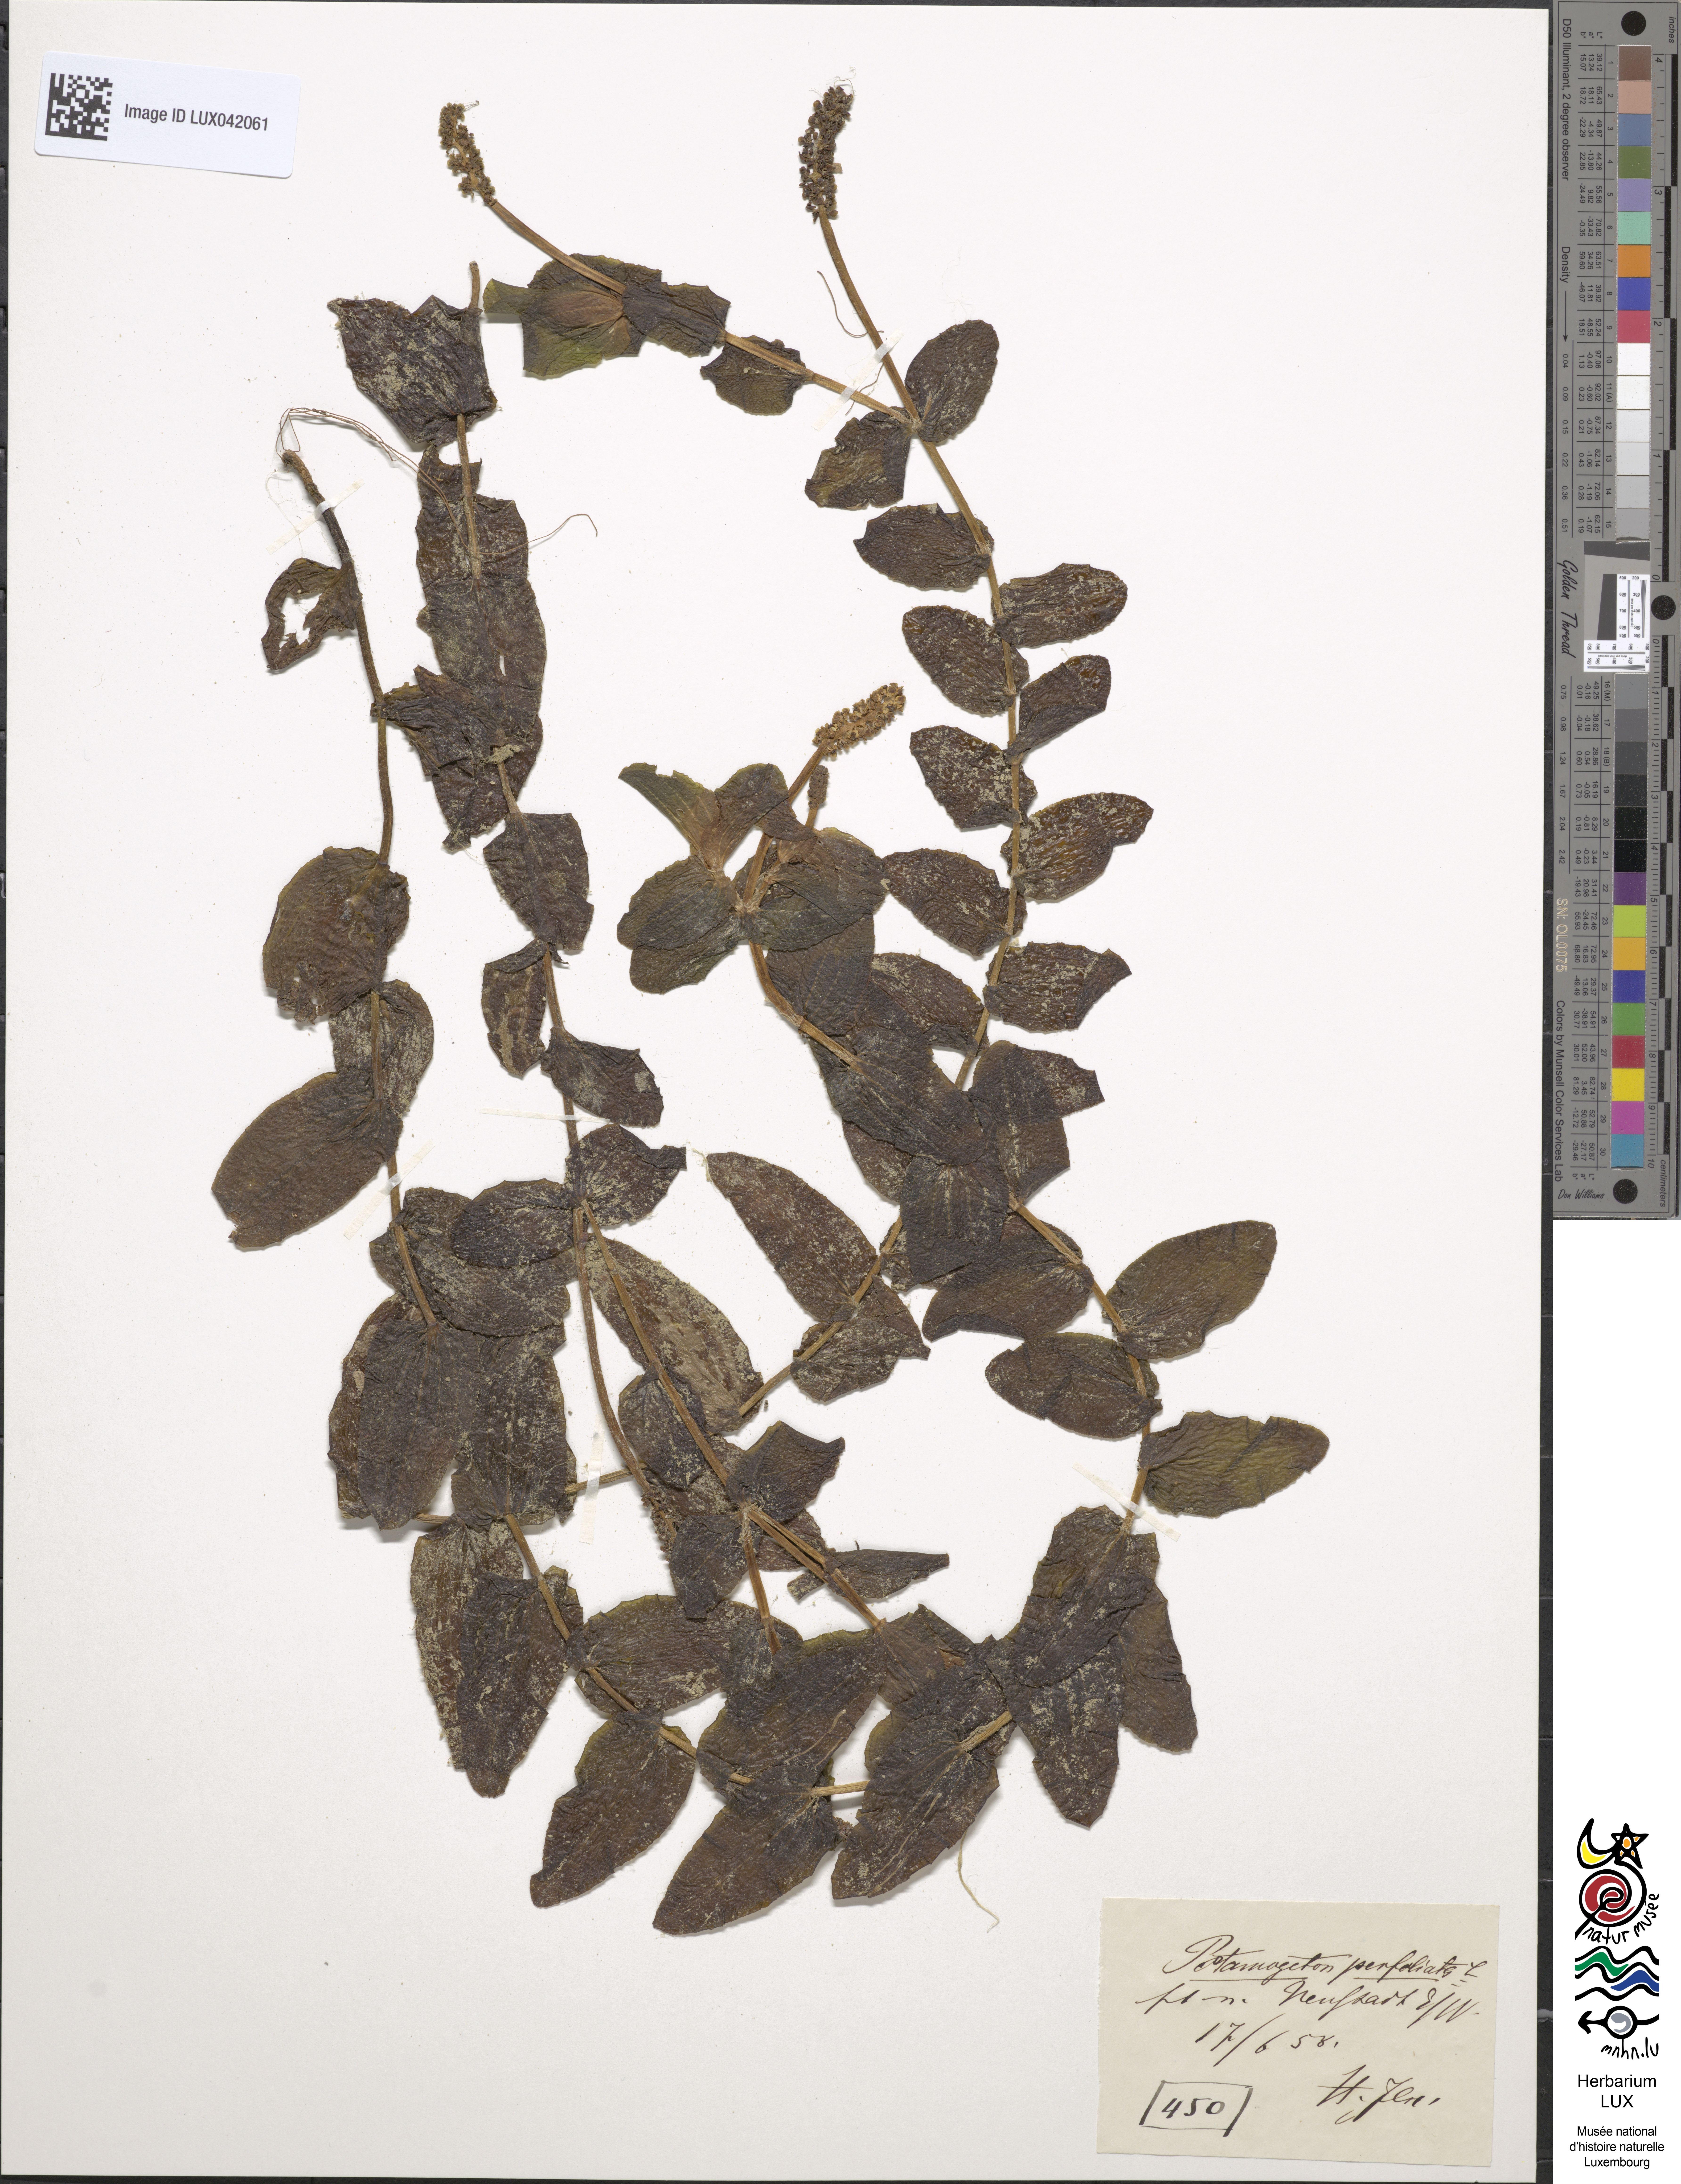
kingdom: Plantae
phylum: Tracheophyta
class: Liliopsida
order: Alismatales
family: Potamogetonaceae
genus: Potamogeton
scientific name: Potamogeton perfoliatus
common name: Perfoliate pondweed
